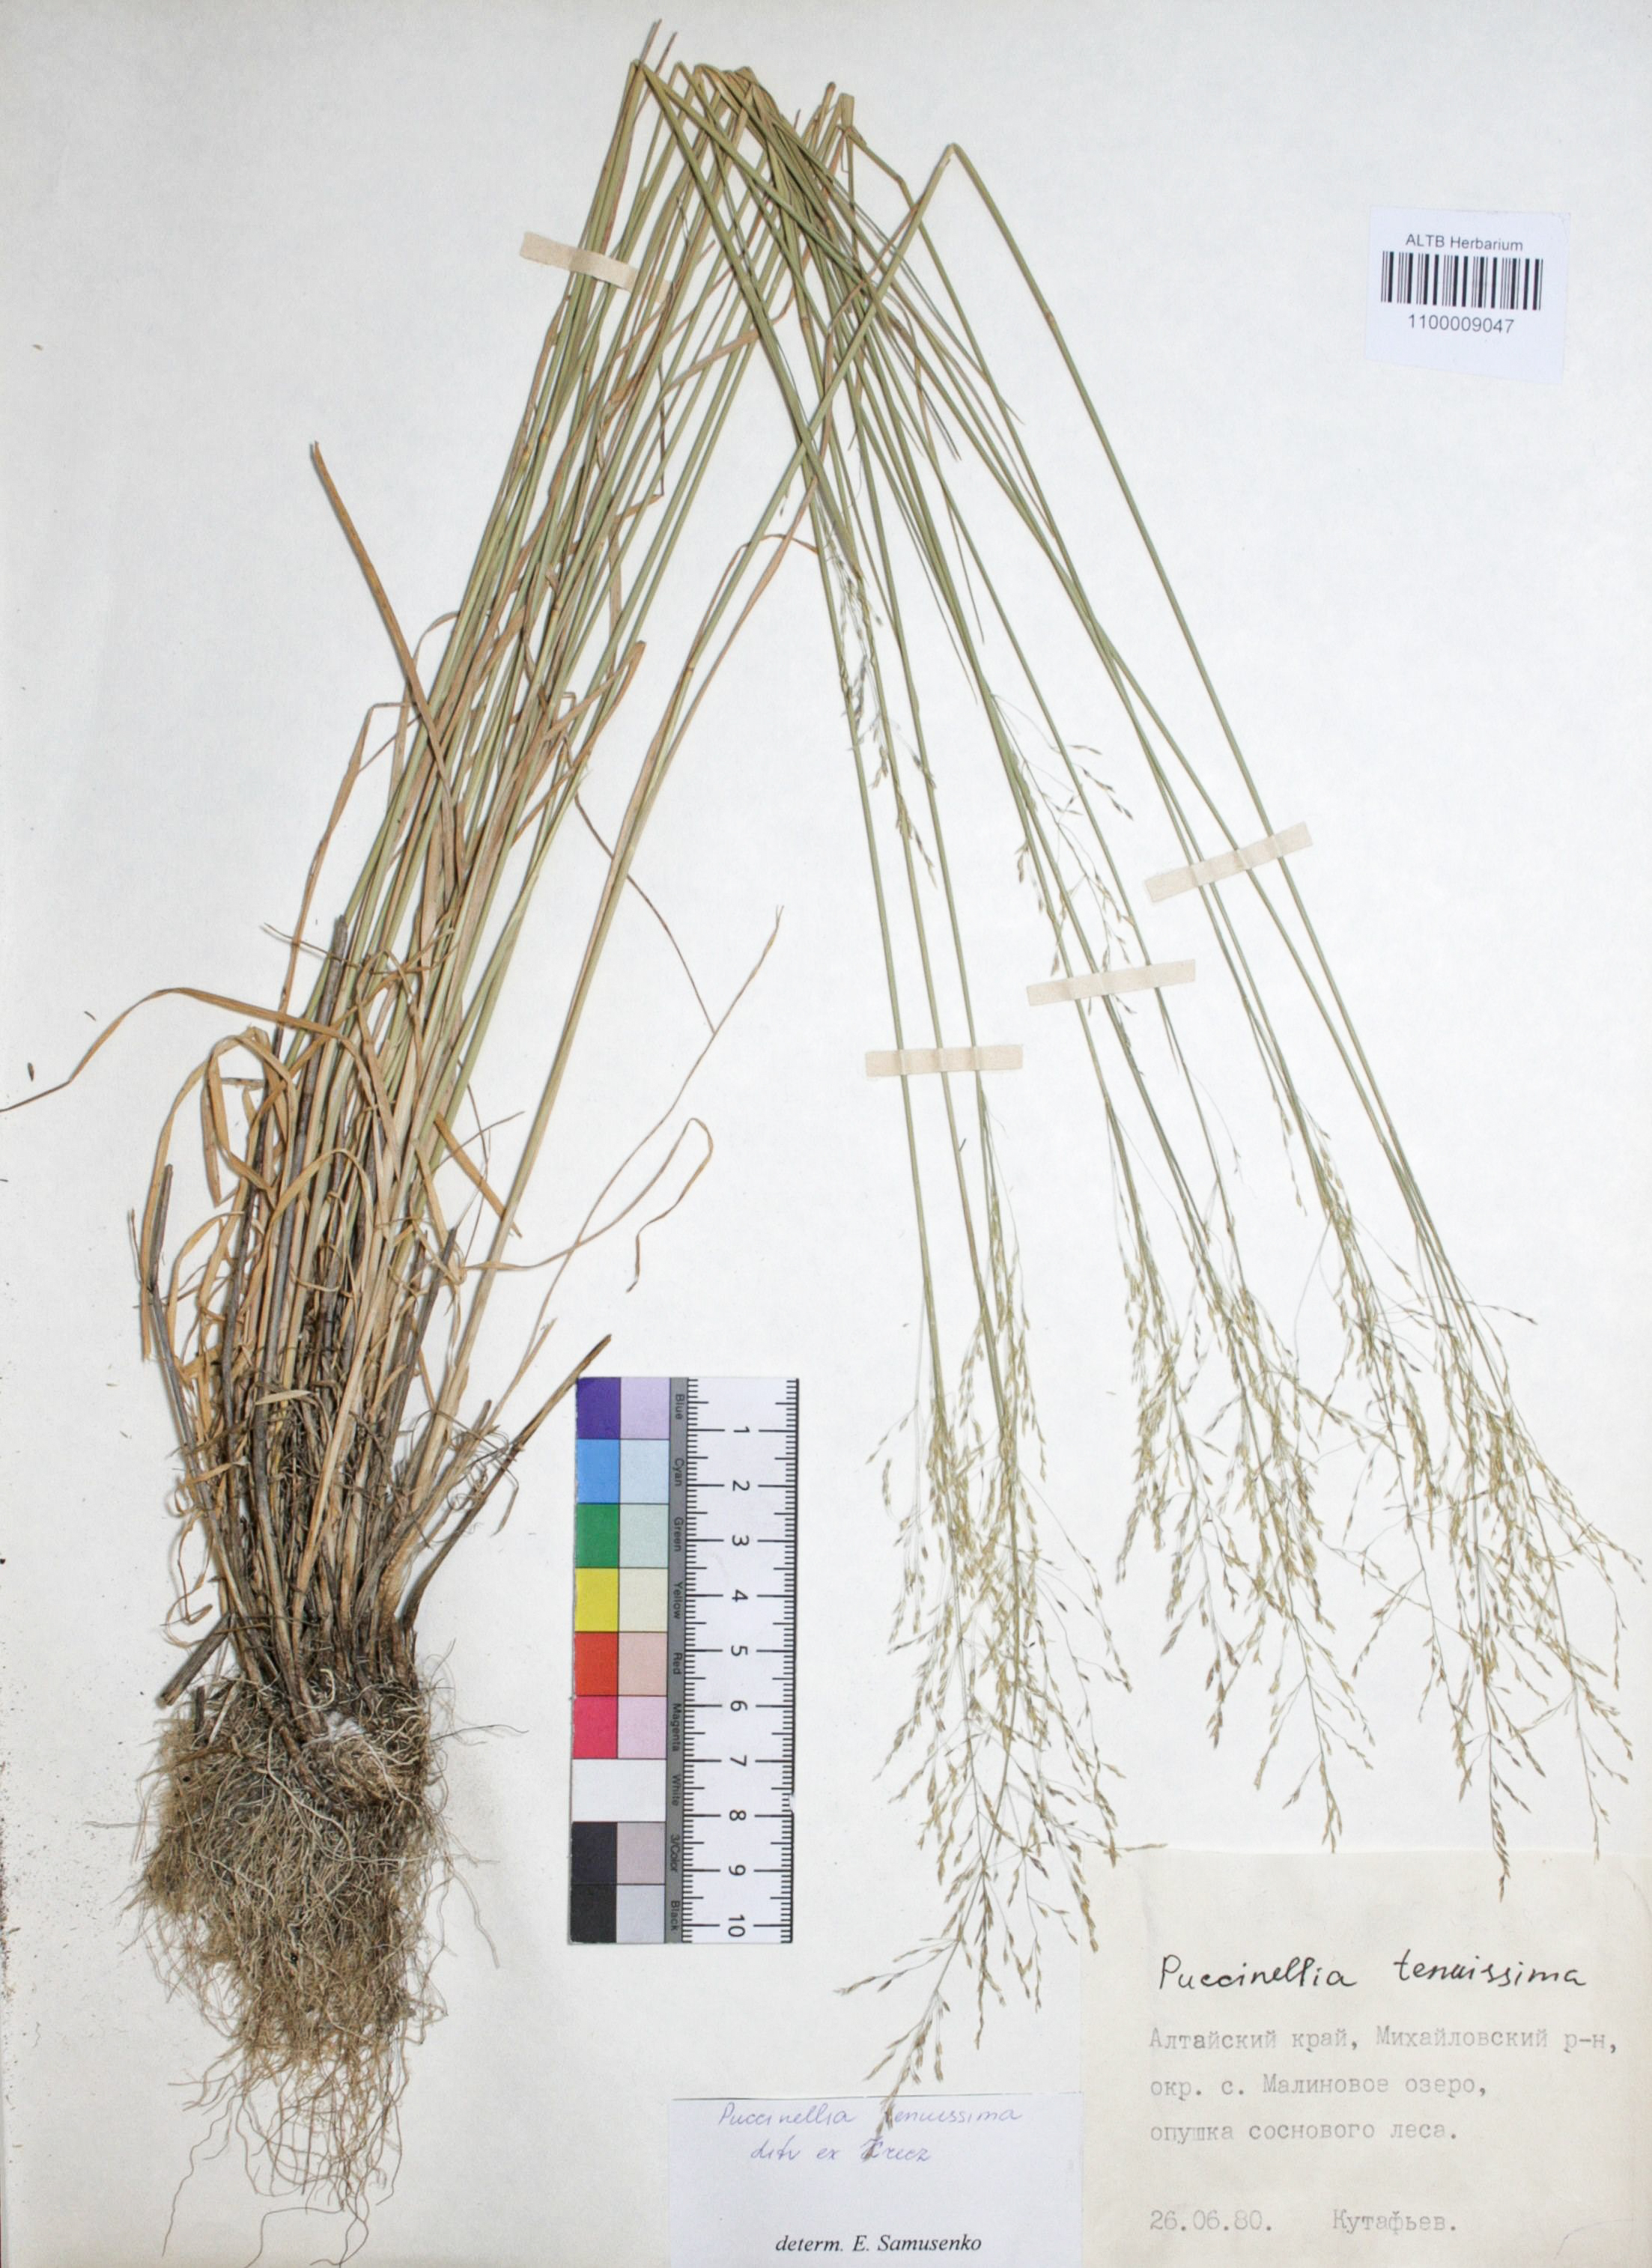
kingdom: Plantae
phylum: Tracheophyta
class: Liliopsida
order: Poales
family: Poaceae
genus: Puccinellia
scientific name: Puccinellia tenuiflora
